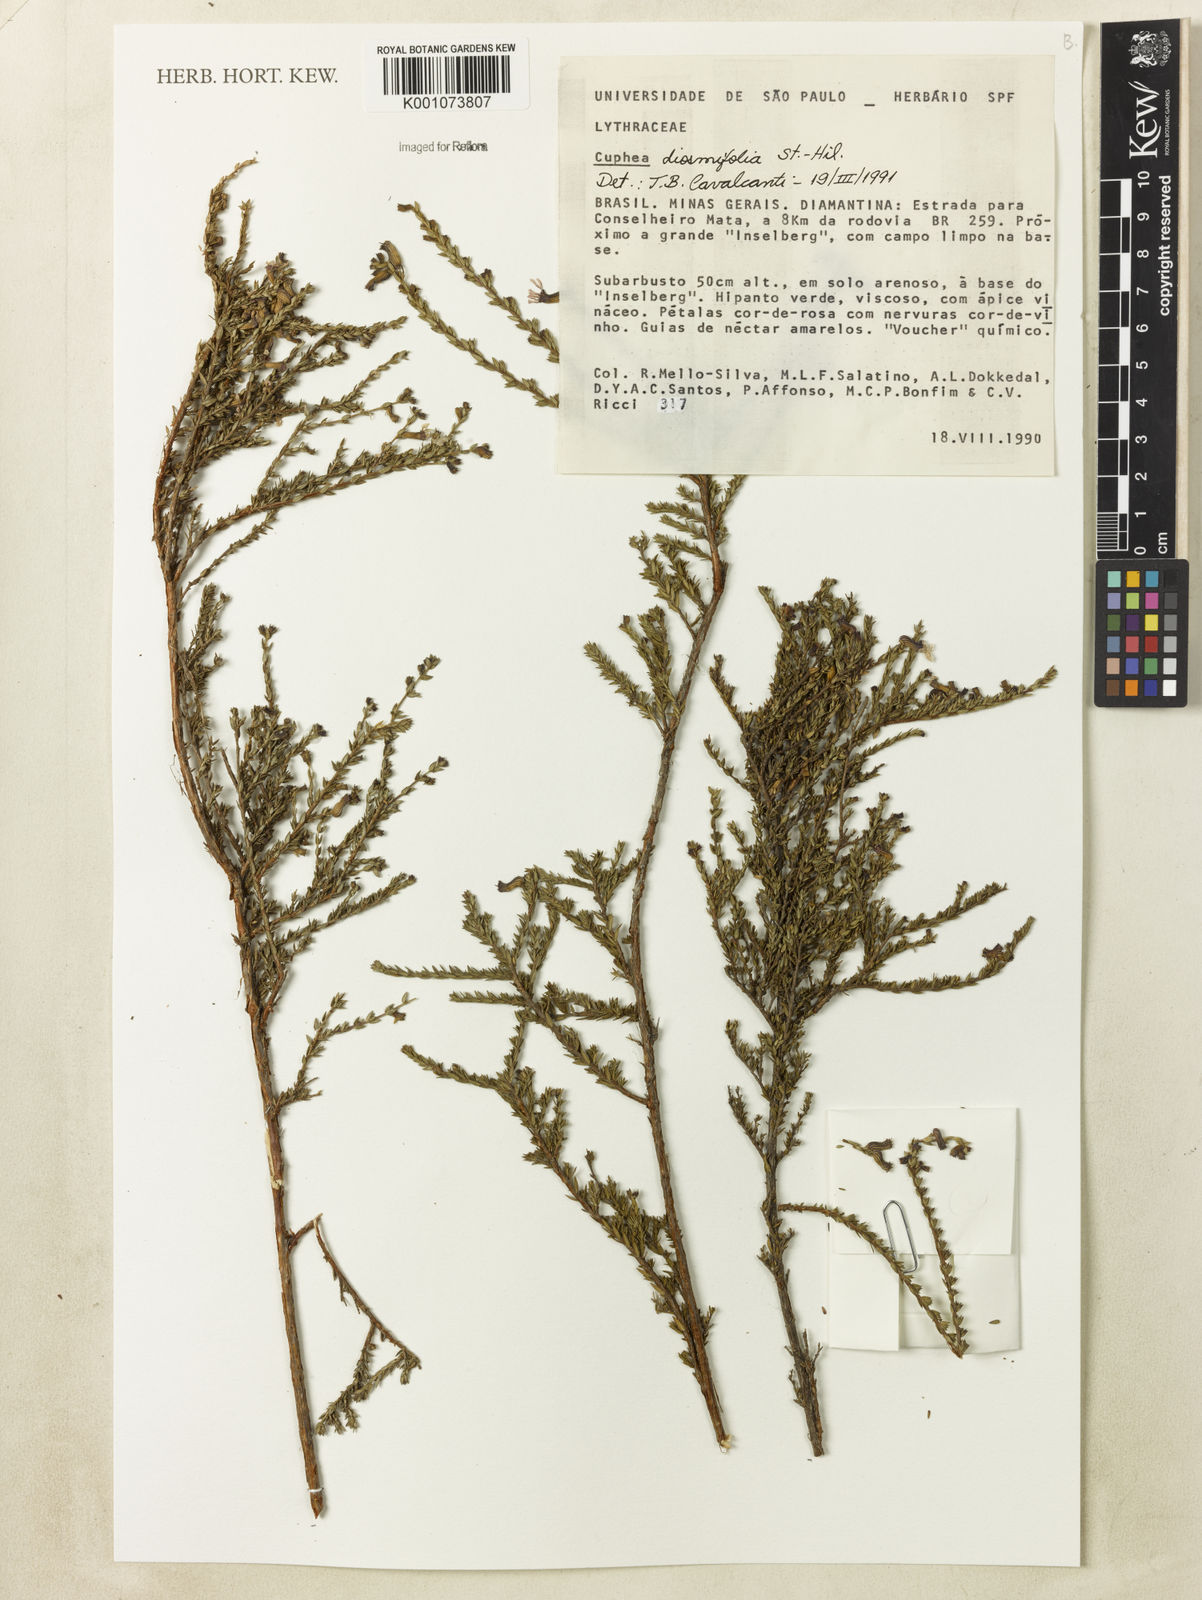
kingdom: Plantae
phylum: Tracheophyta
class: Magnoliopsida
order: Myrtales
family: Lythraceae
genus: Cuphea
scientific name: Cuphea diosmifolia
